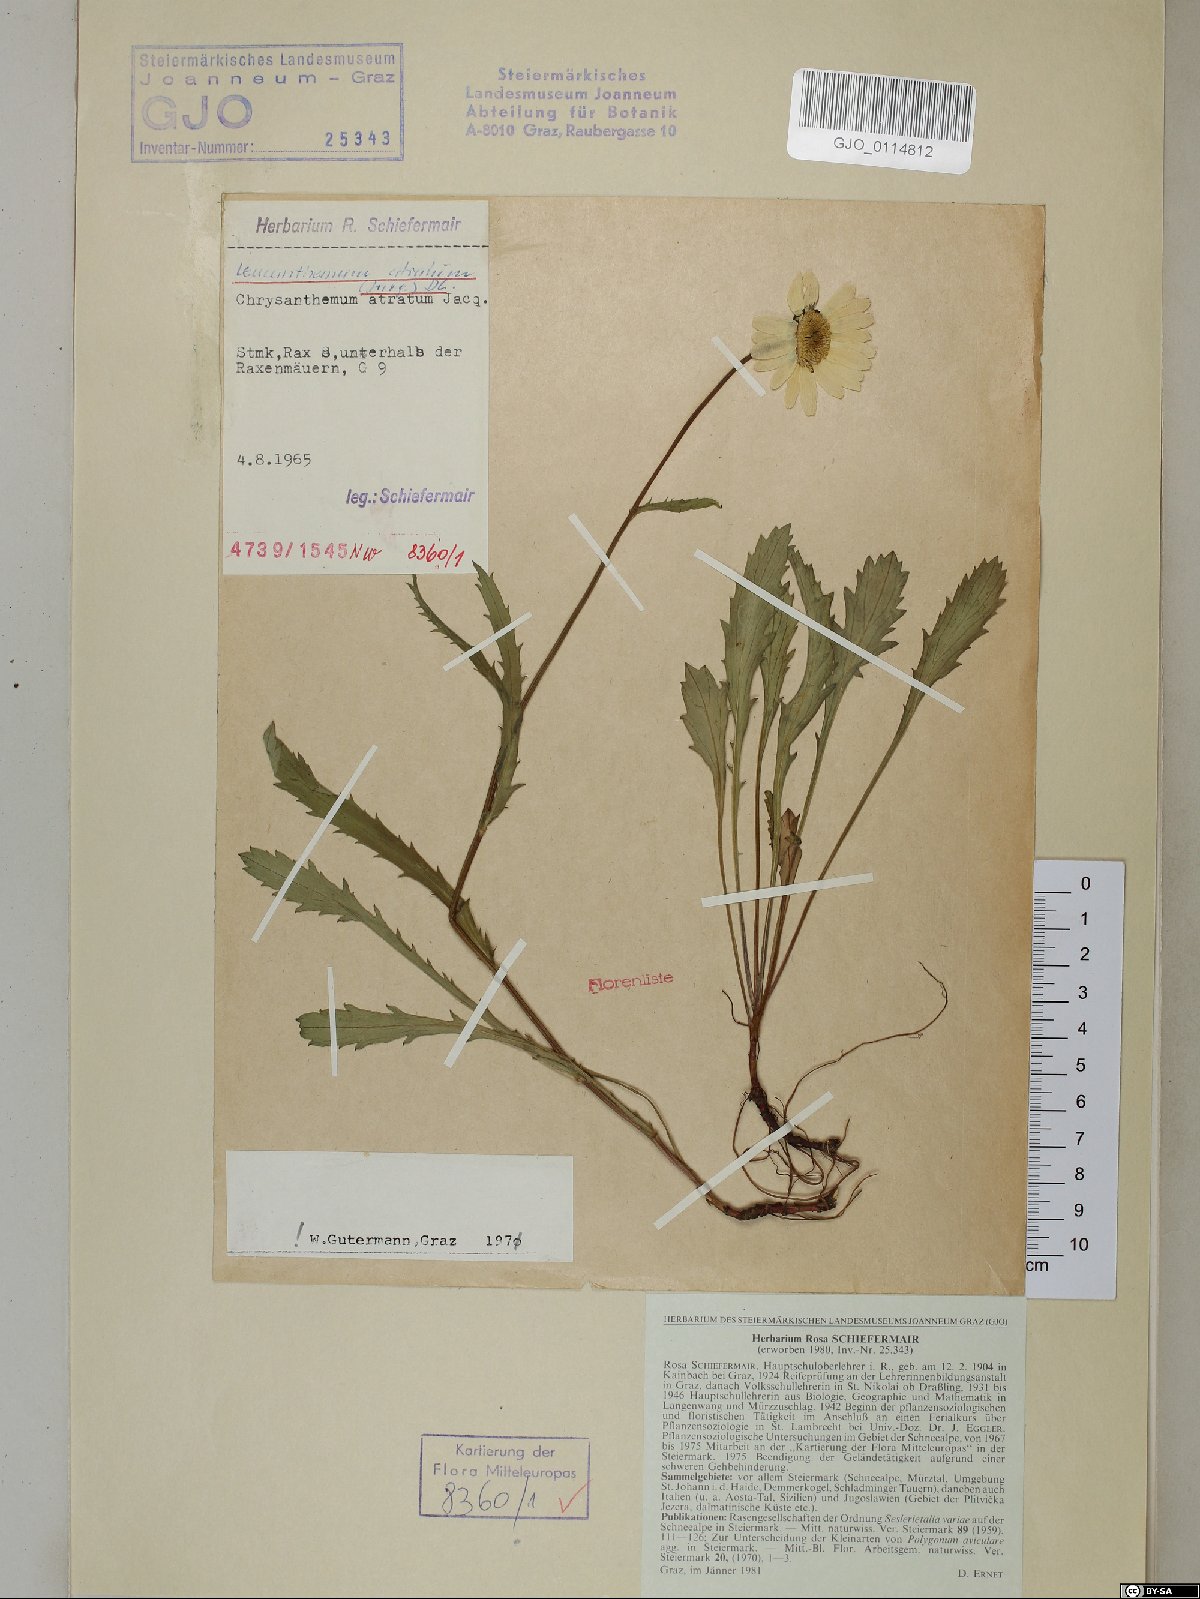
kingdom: Plantae
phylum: Tracheophyta
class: Magnoliopsida
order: Asterales
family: Asteraceae
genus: Leucanthemum
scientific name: Leucanthemum atratum
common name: Saw-leaved moon-daisy
